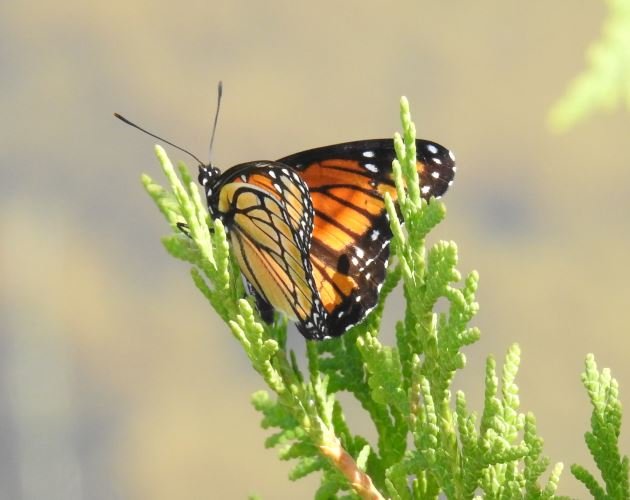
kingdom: Animalia
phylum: Arthropoda
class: Insecta
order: Lepidoptera
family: Nymphalidae
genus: Limenitis
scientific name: Limenitis archippus
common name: Viceroy
